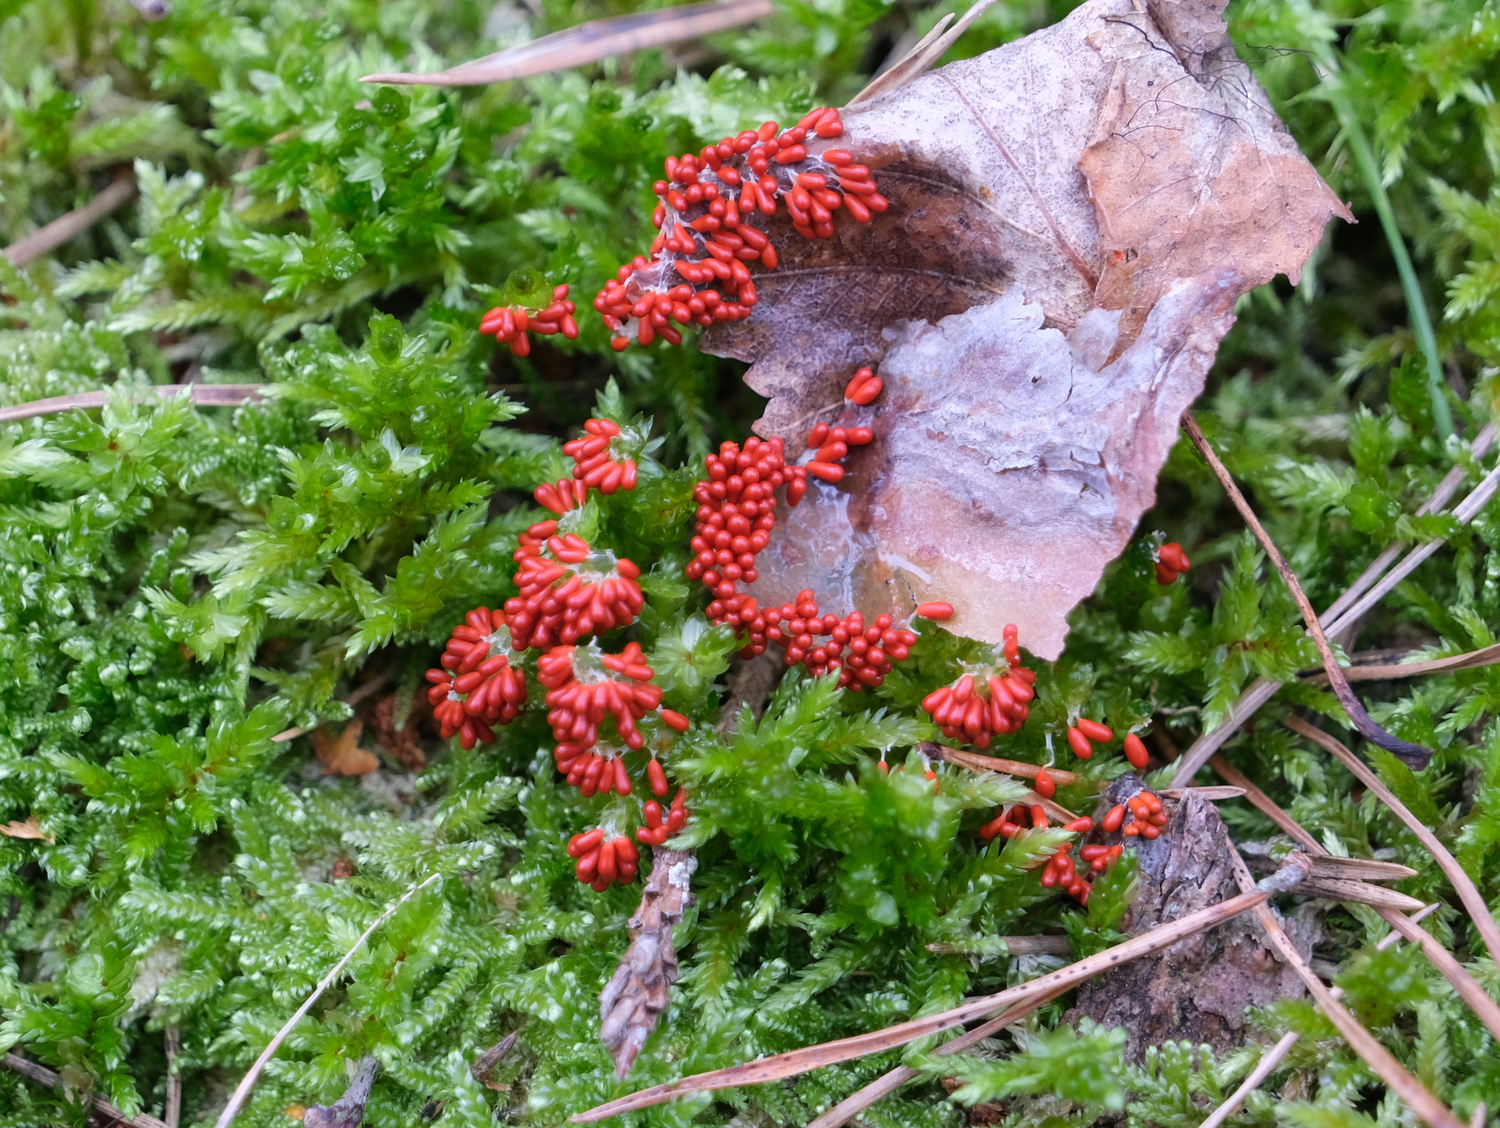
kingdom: Protozoa
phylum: Mycetozoa
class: Myxomycetes
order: Physarales
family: Physaraceae
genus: Leocarpus
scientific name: Leocarpus fragilis
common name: poleret glatfrø
